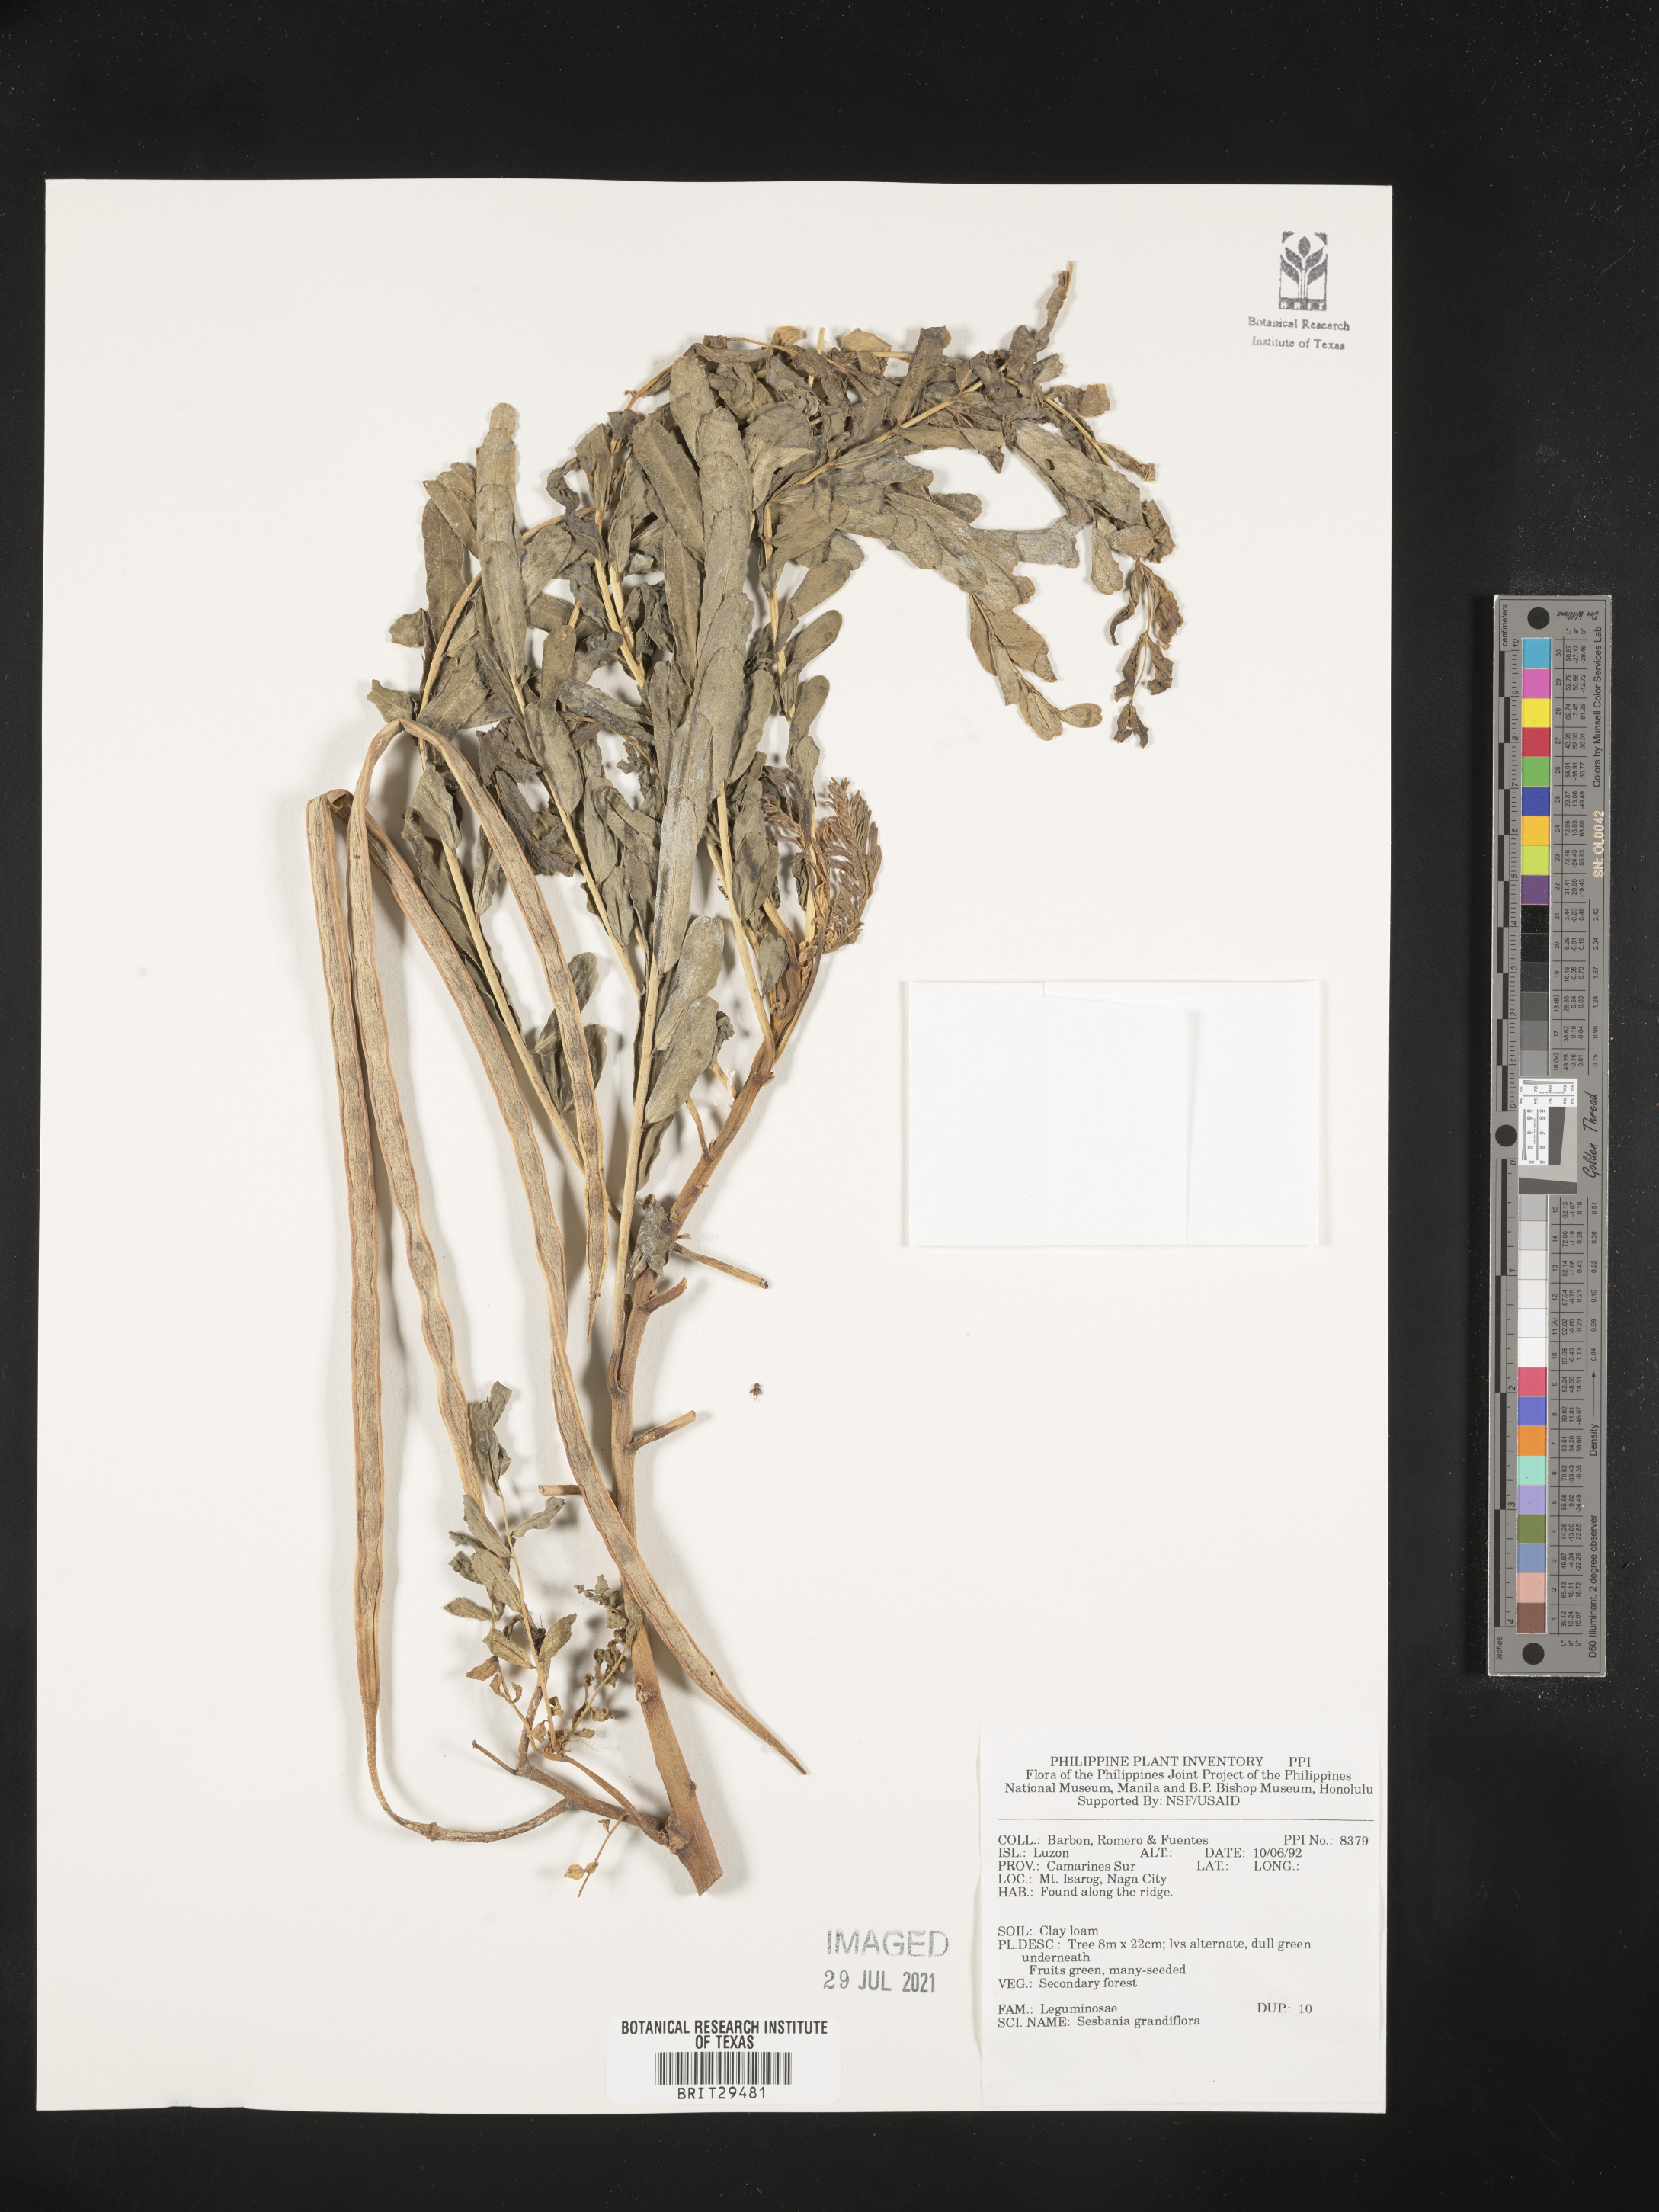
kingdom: Plantae
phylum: Tracheophyta
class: Magnoliopsida
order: Fabales
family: Fabaceae
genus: Sesbania
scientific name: Sesbania grandiflora
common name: Vegetable-hummingbird
